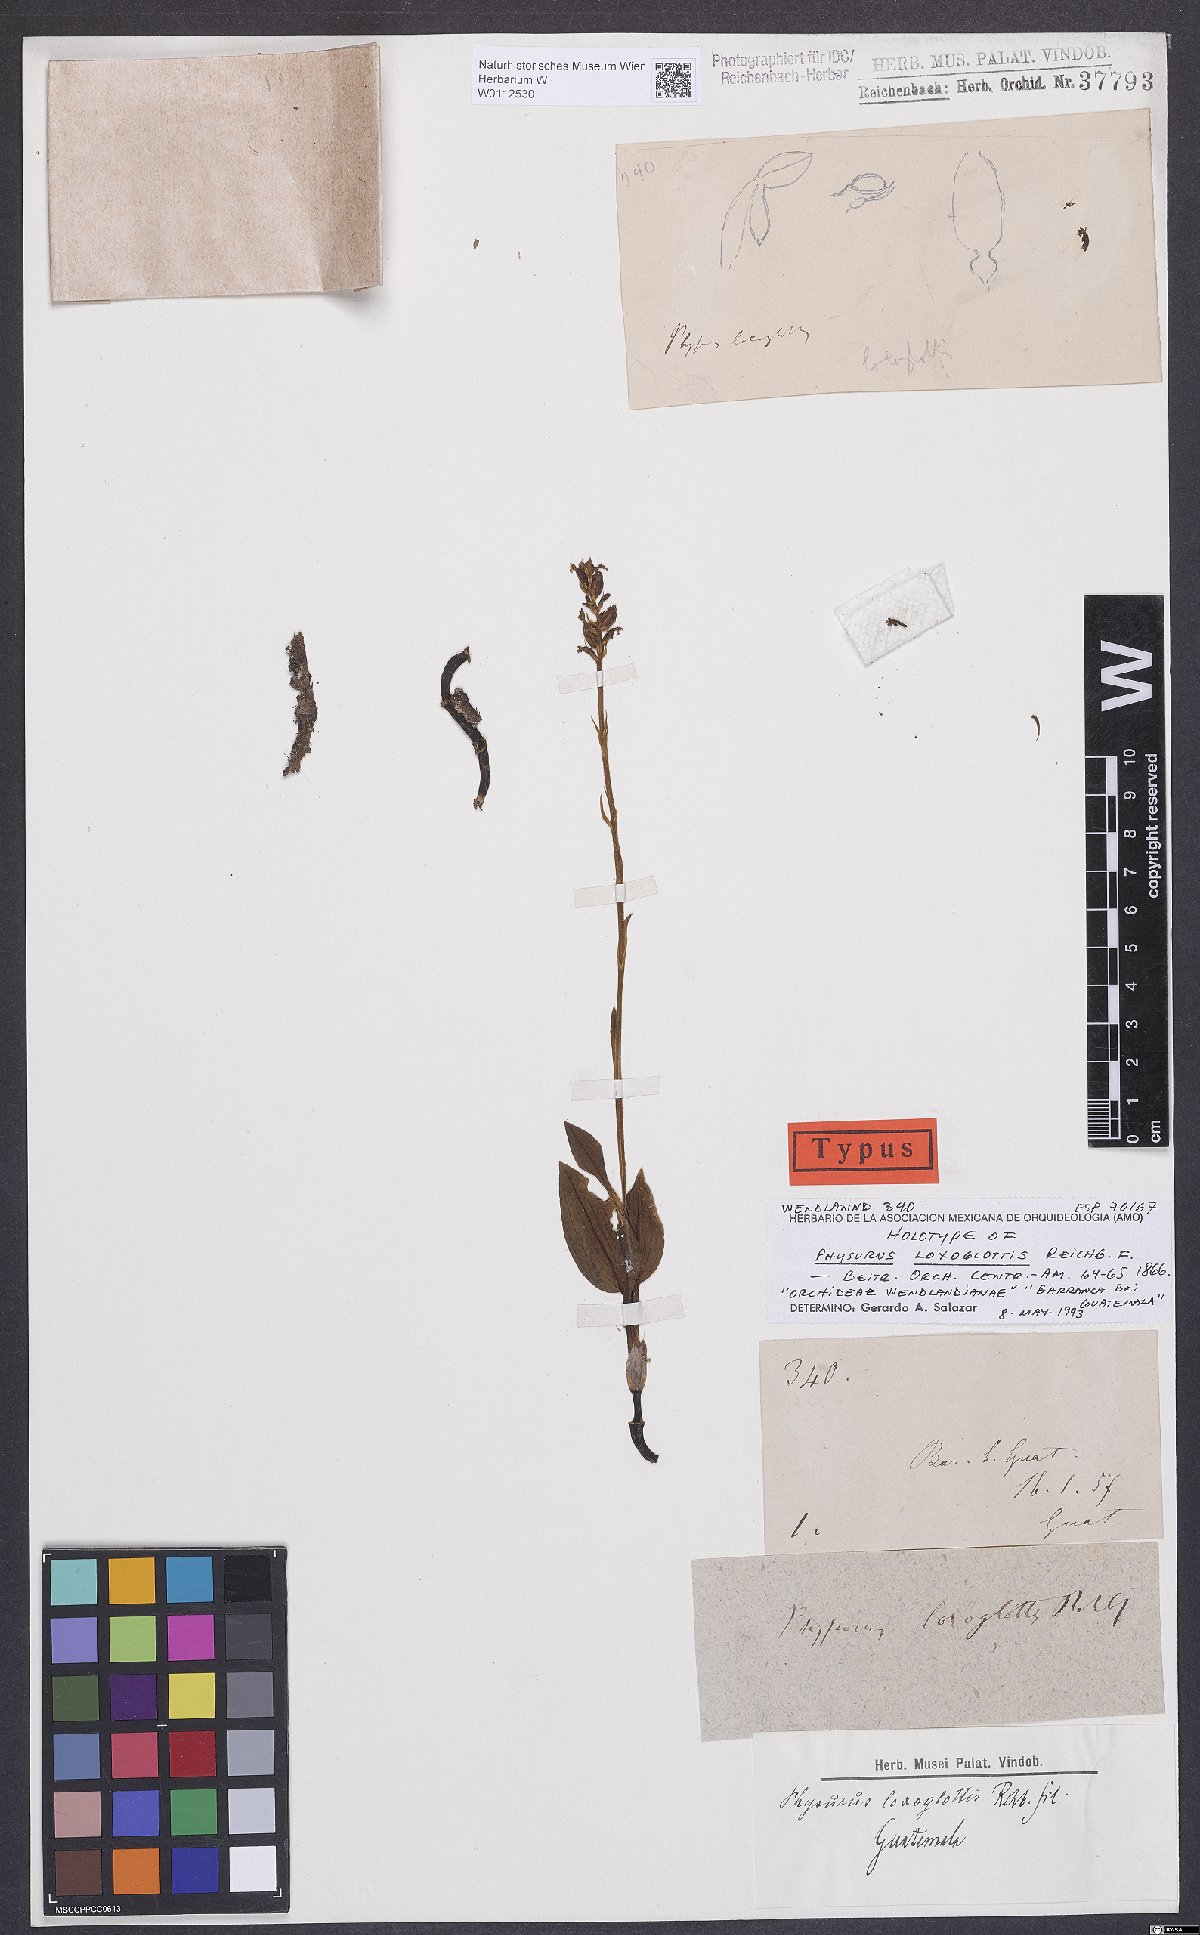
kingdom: Plantae
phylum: Tracheophyta
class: Liliopsida
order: Asparagales
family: Orchidaceae
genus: Kreodanthus
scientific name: Kreodanthus loxoglottis
